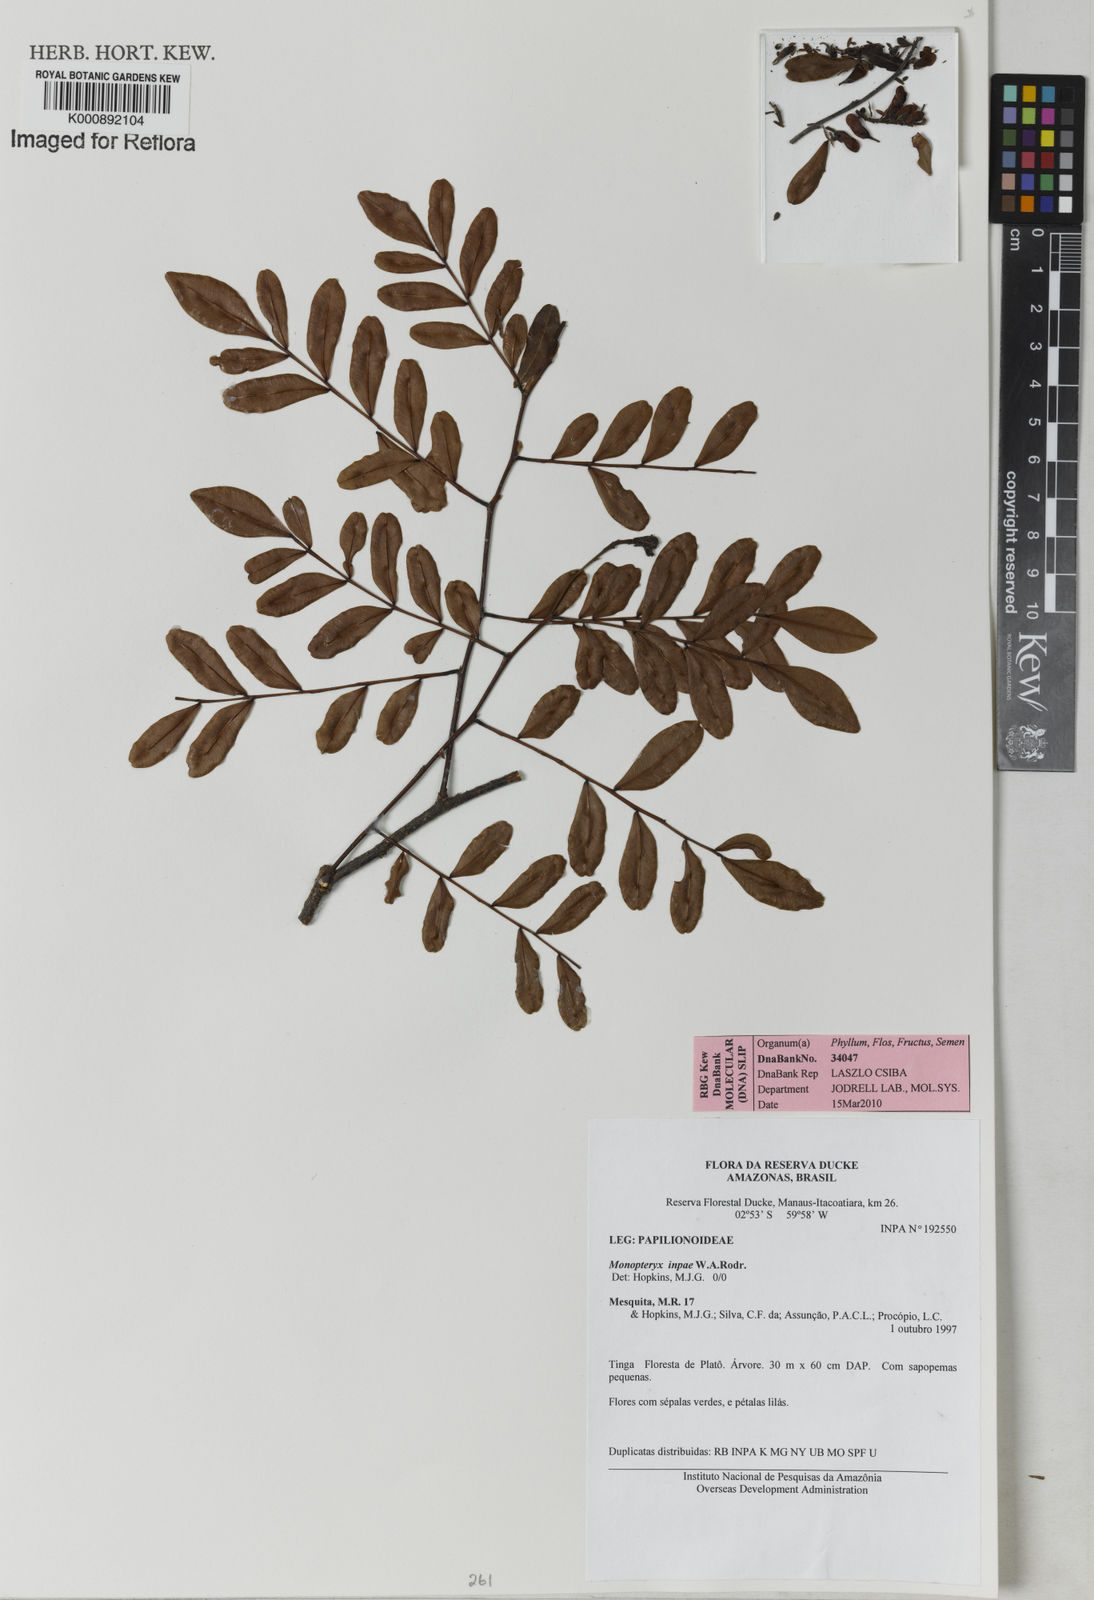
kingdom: Plantae
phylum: Tracheophyta
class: Magnoliopsida
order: Fabales
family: Fabaceae
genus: Monopteryx
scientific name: Monopteryx inpae
